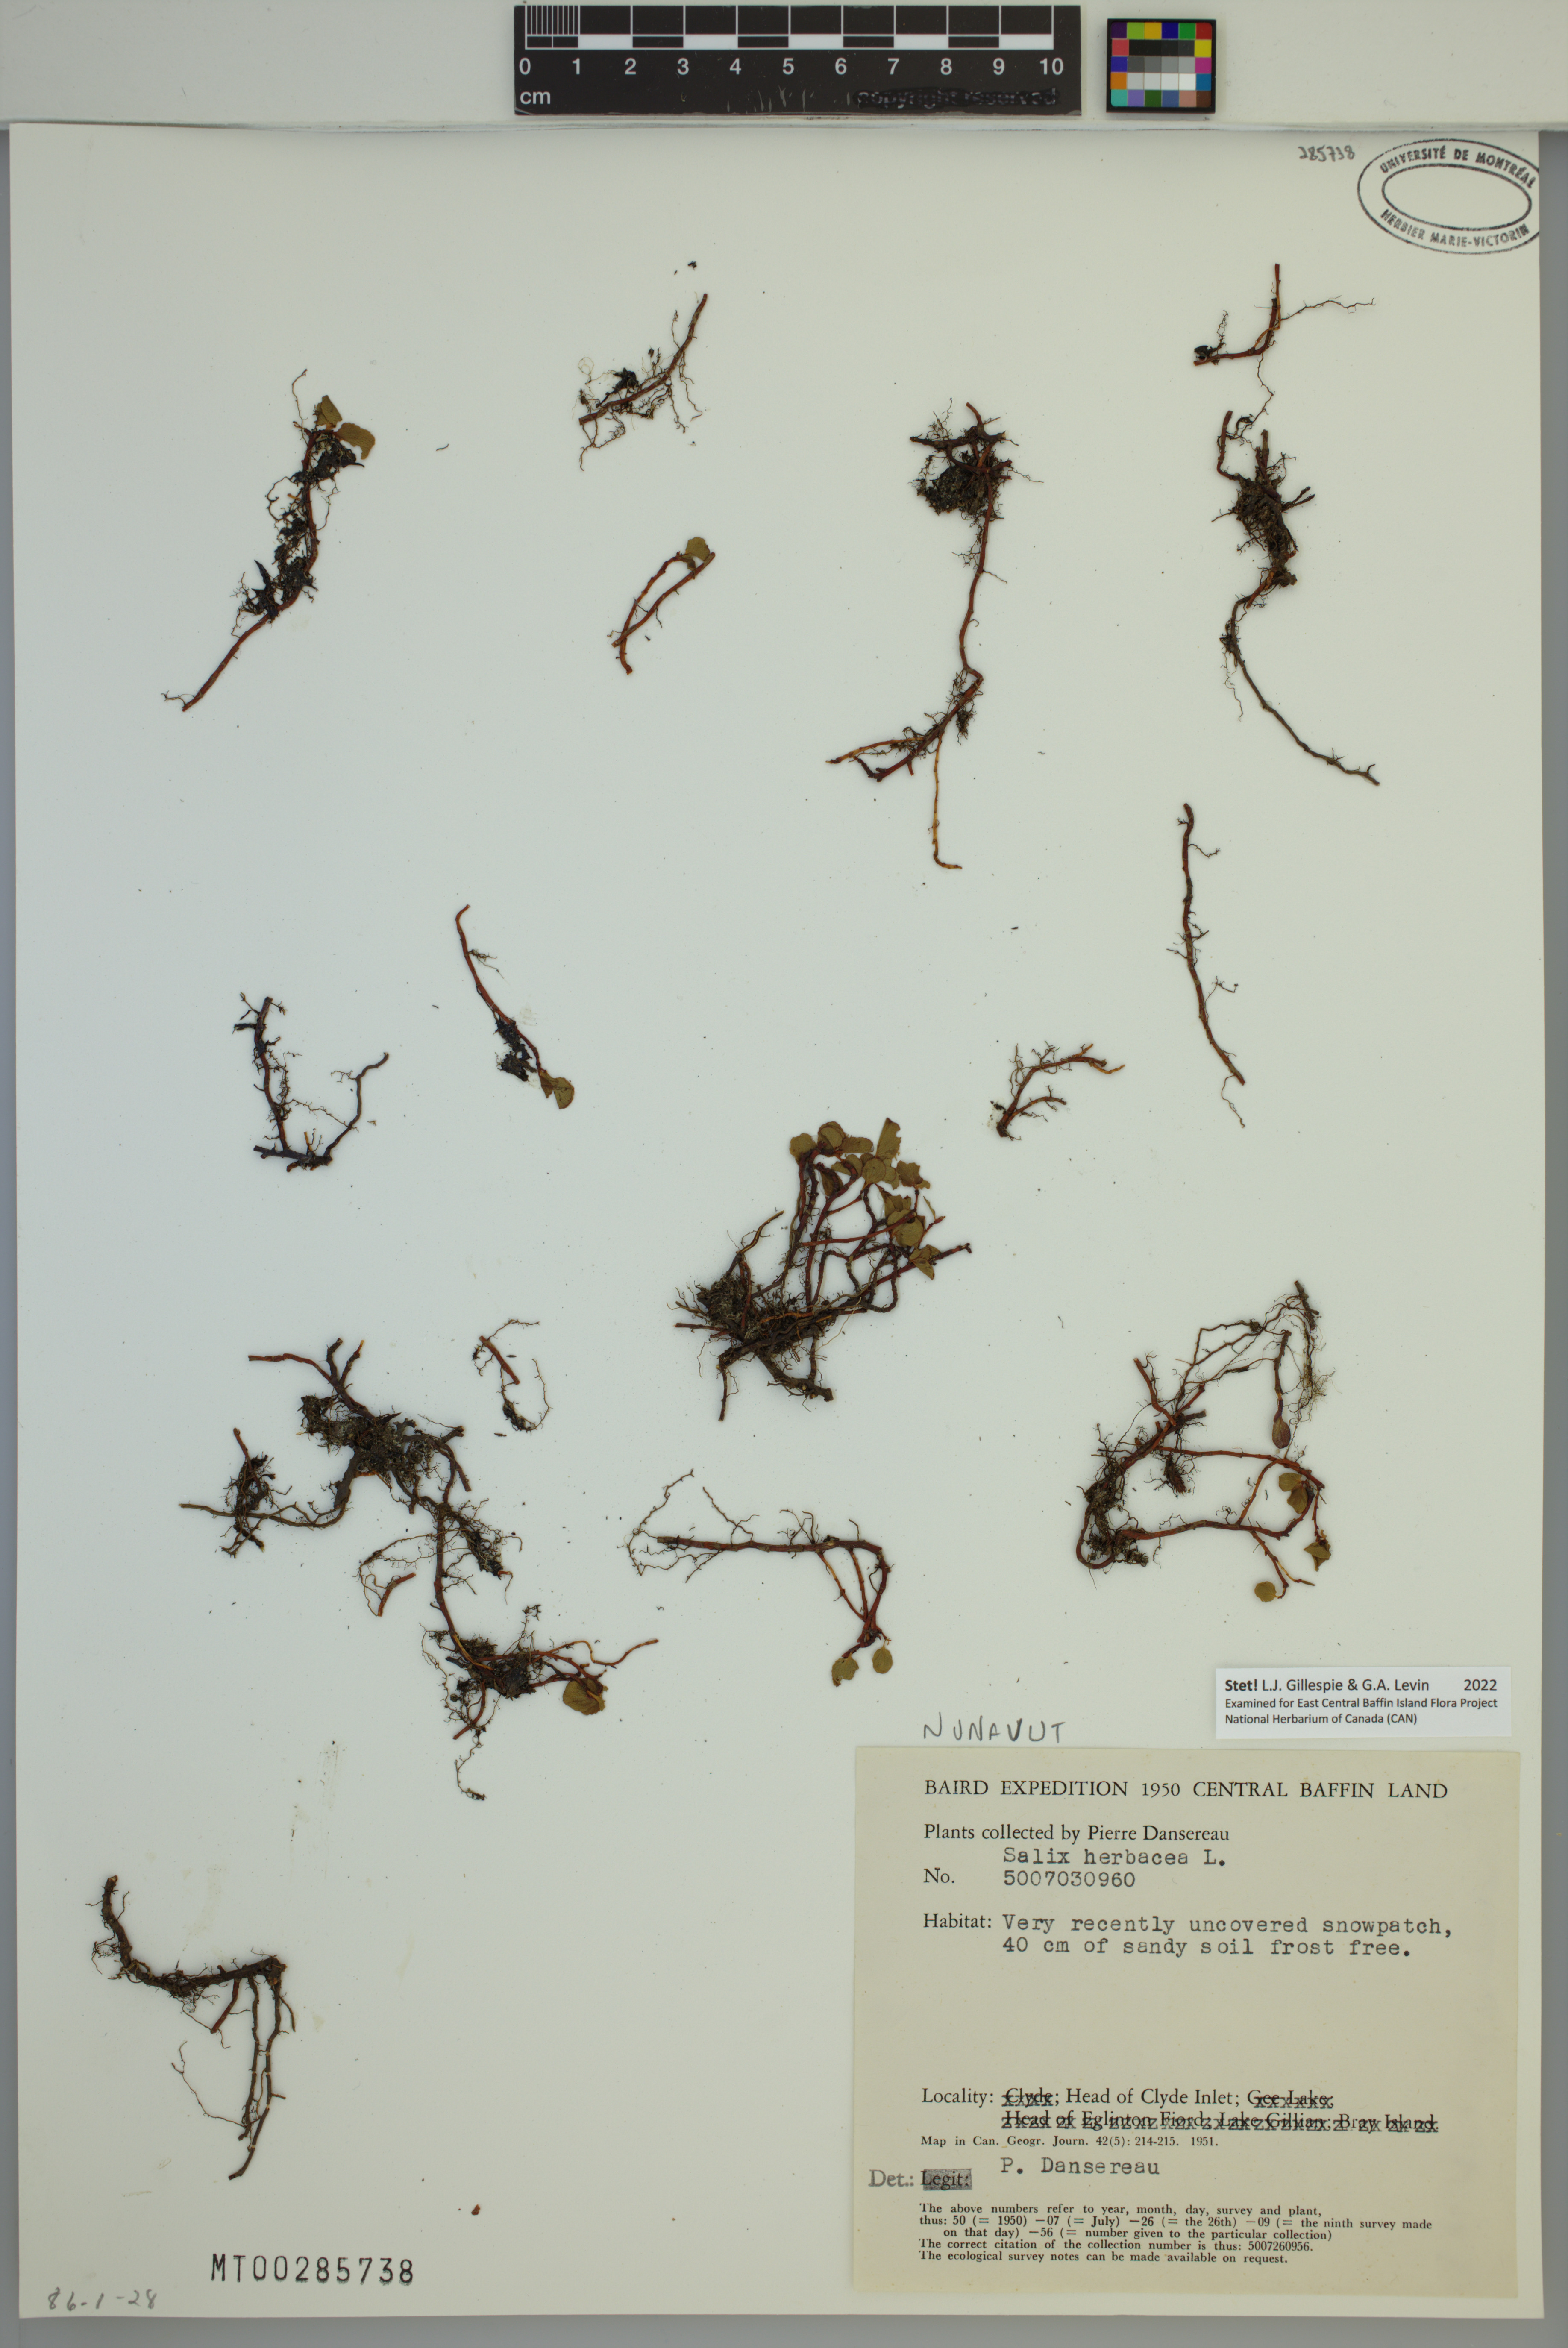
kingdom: Plantae
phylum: Tracheophyta
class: Magnoliopsida
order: Malpighiales
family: Salicaceae
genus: Salix
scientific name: Salix herbacea
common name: Dwarf willow
